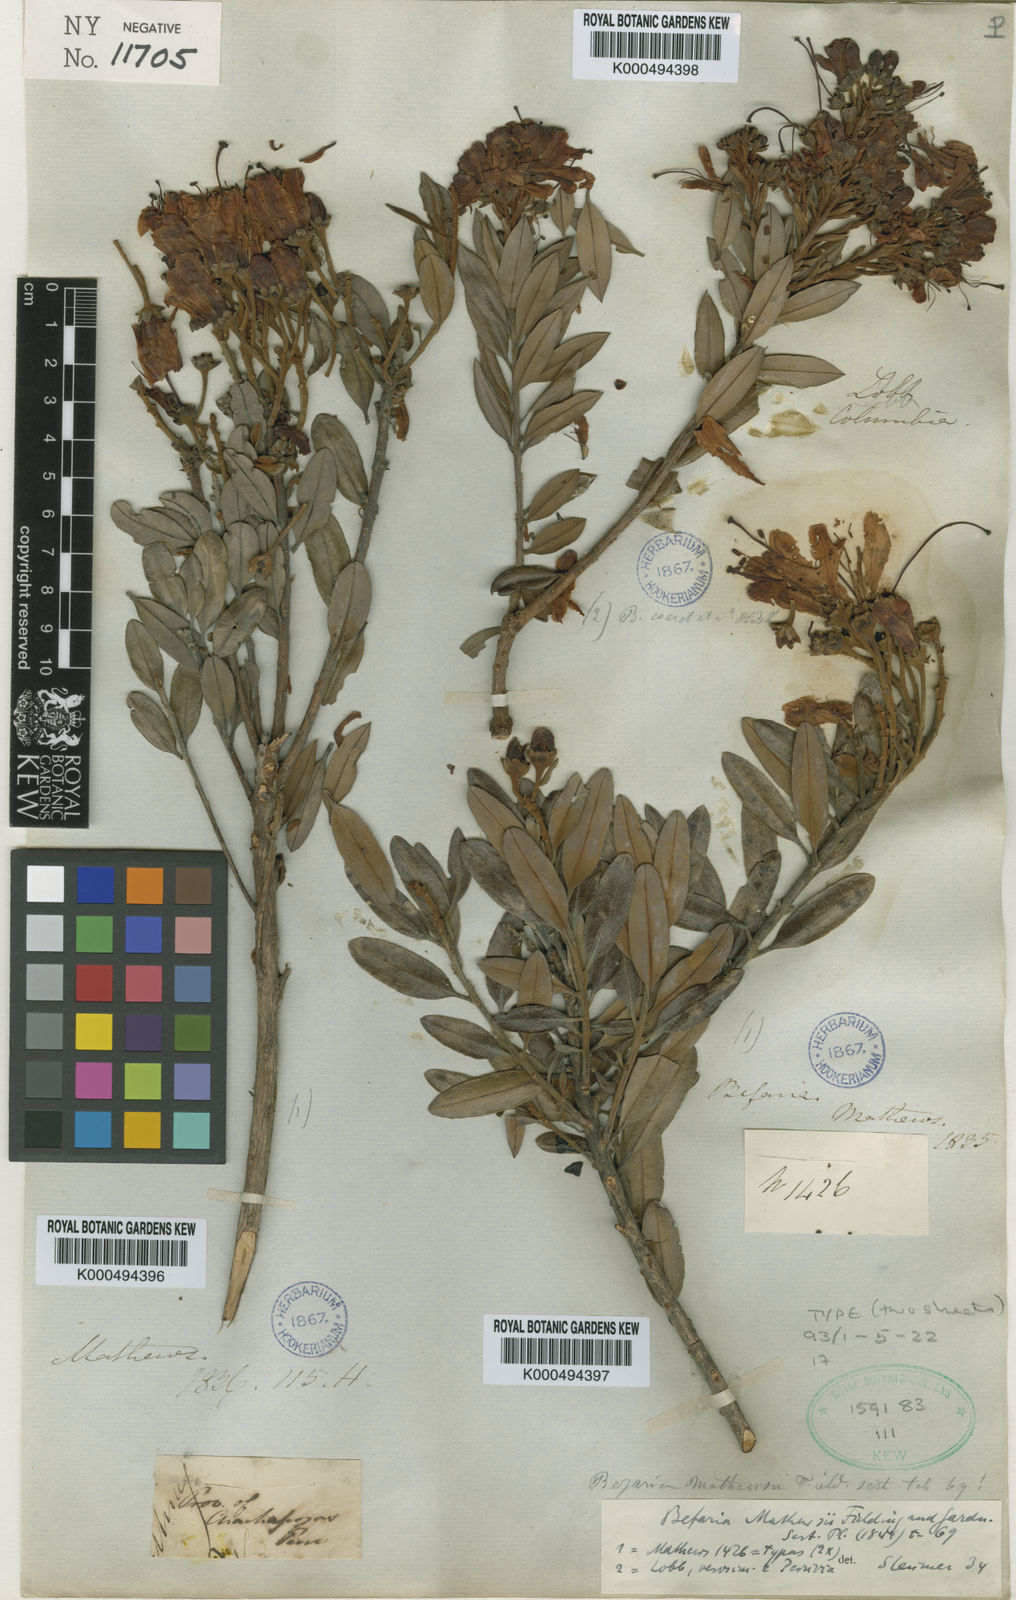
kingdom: Plantae
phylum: Tracheophyta
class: Magnoliopsida
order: Ericales
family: Ericaceae
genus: Bejaria
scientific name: Bejaria mathewsii
